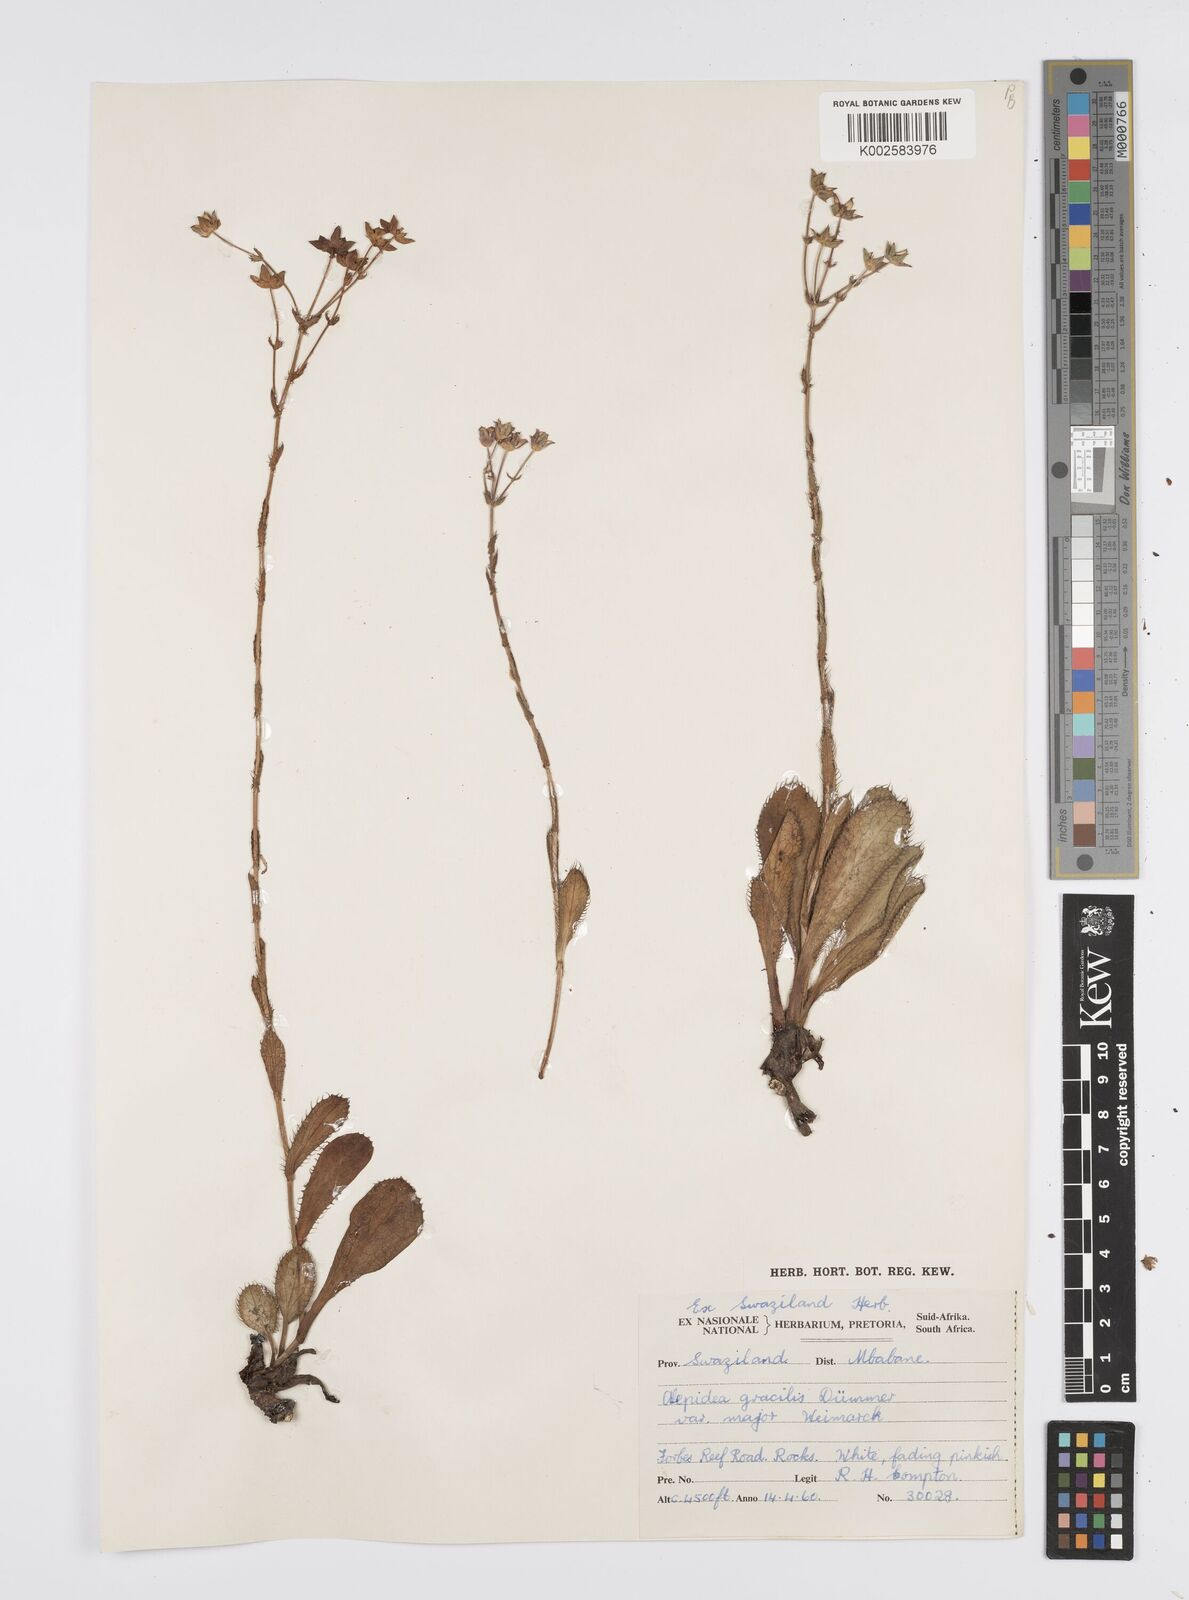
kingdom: Plantae
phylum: Tracheophyta
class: Magnoliopsida
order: Apiales
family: Apiaceae
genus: Alepidea
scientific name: Alepidea
